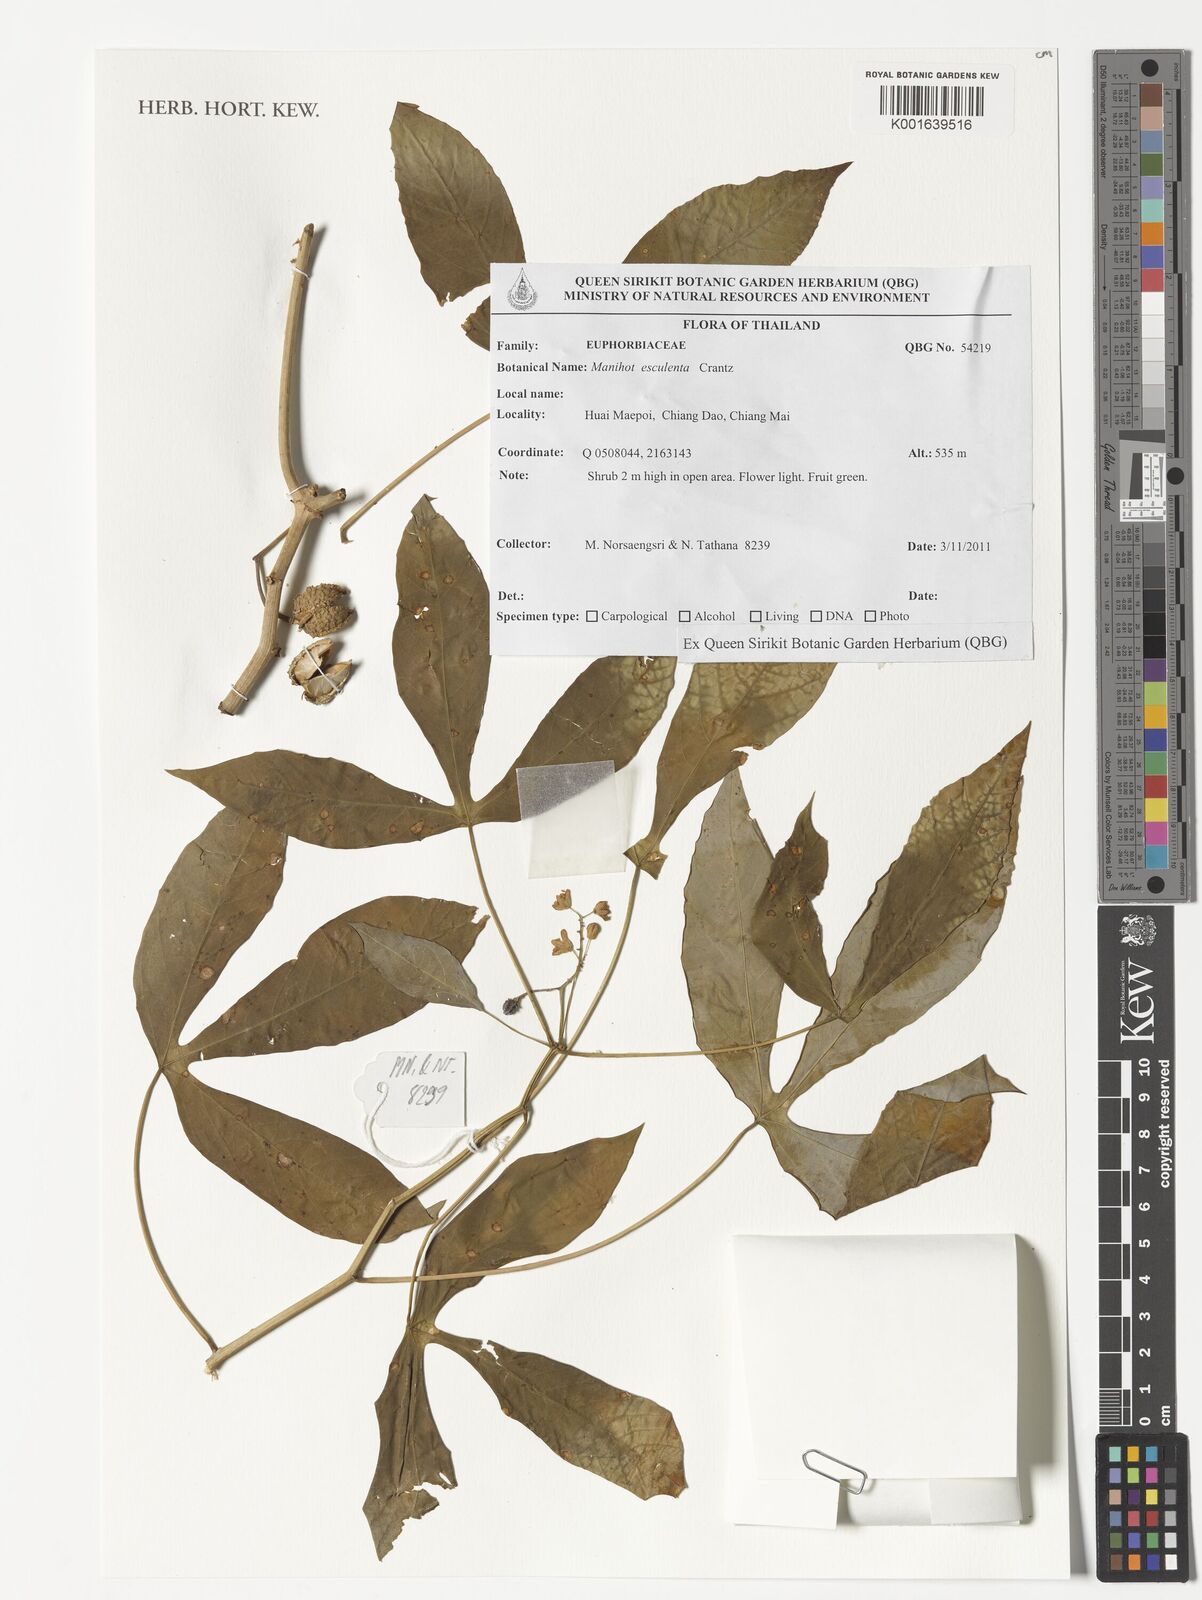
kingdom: Plantae
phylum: Tracheophyta
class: Magnoliopsida
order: Malpighiales
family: Euphorbiaceae
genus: Manihot
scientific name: Manihot esculenta
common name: Cassava
